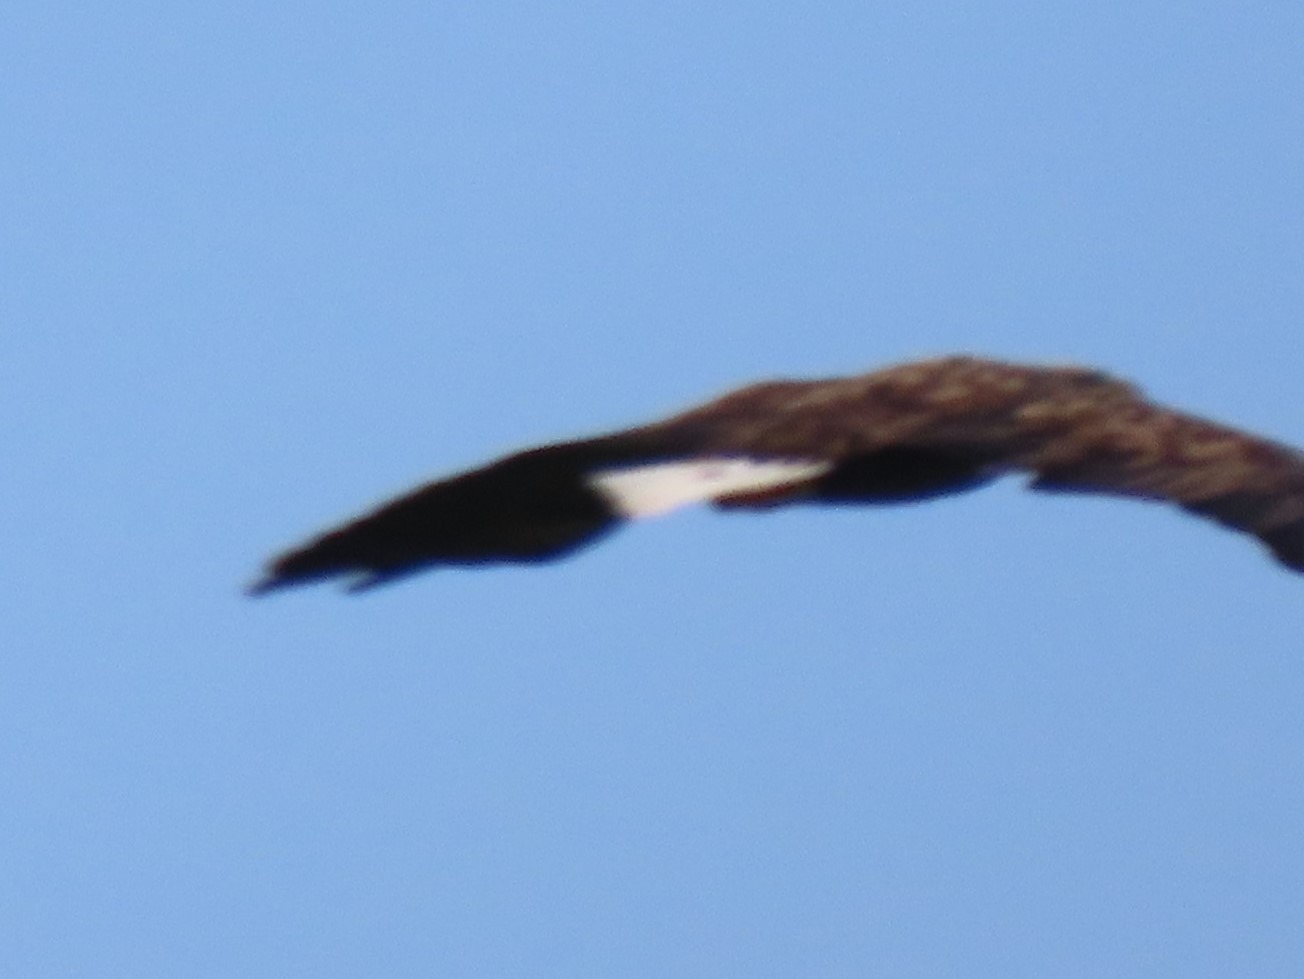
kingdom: Animalia
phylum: Chordata
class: Aves
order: Accipitriformes
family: Accipitridae
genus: Haliaeetus
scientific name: Haliaeetus albicilla
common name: Havørn
